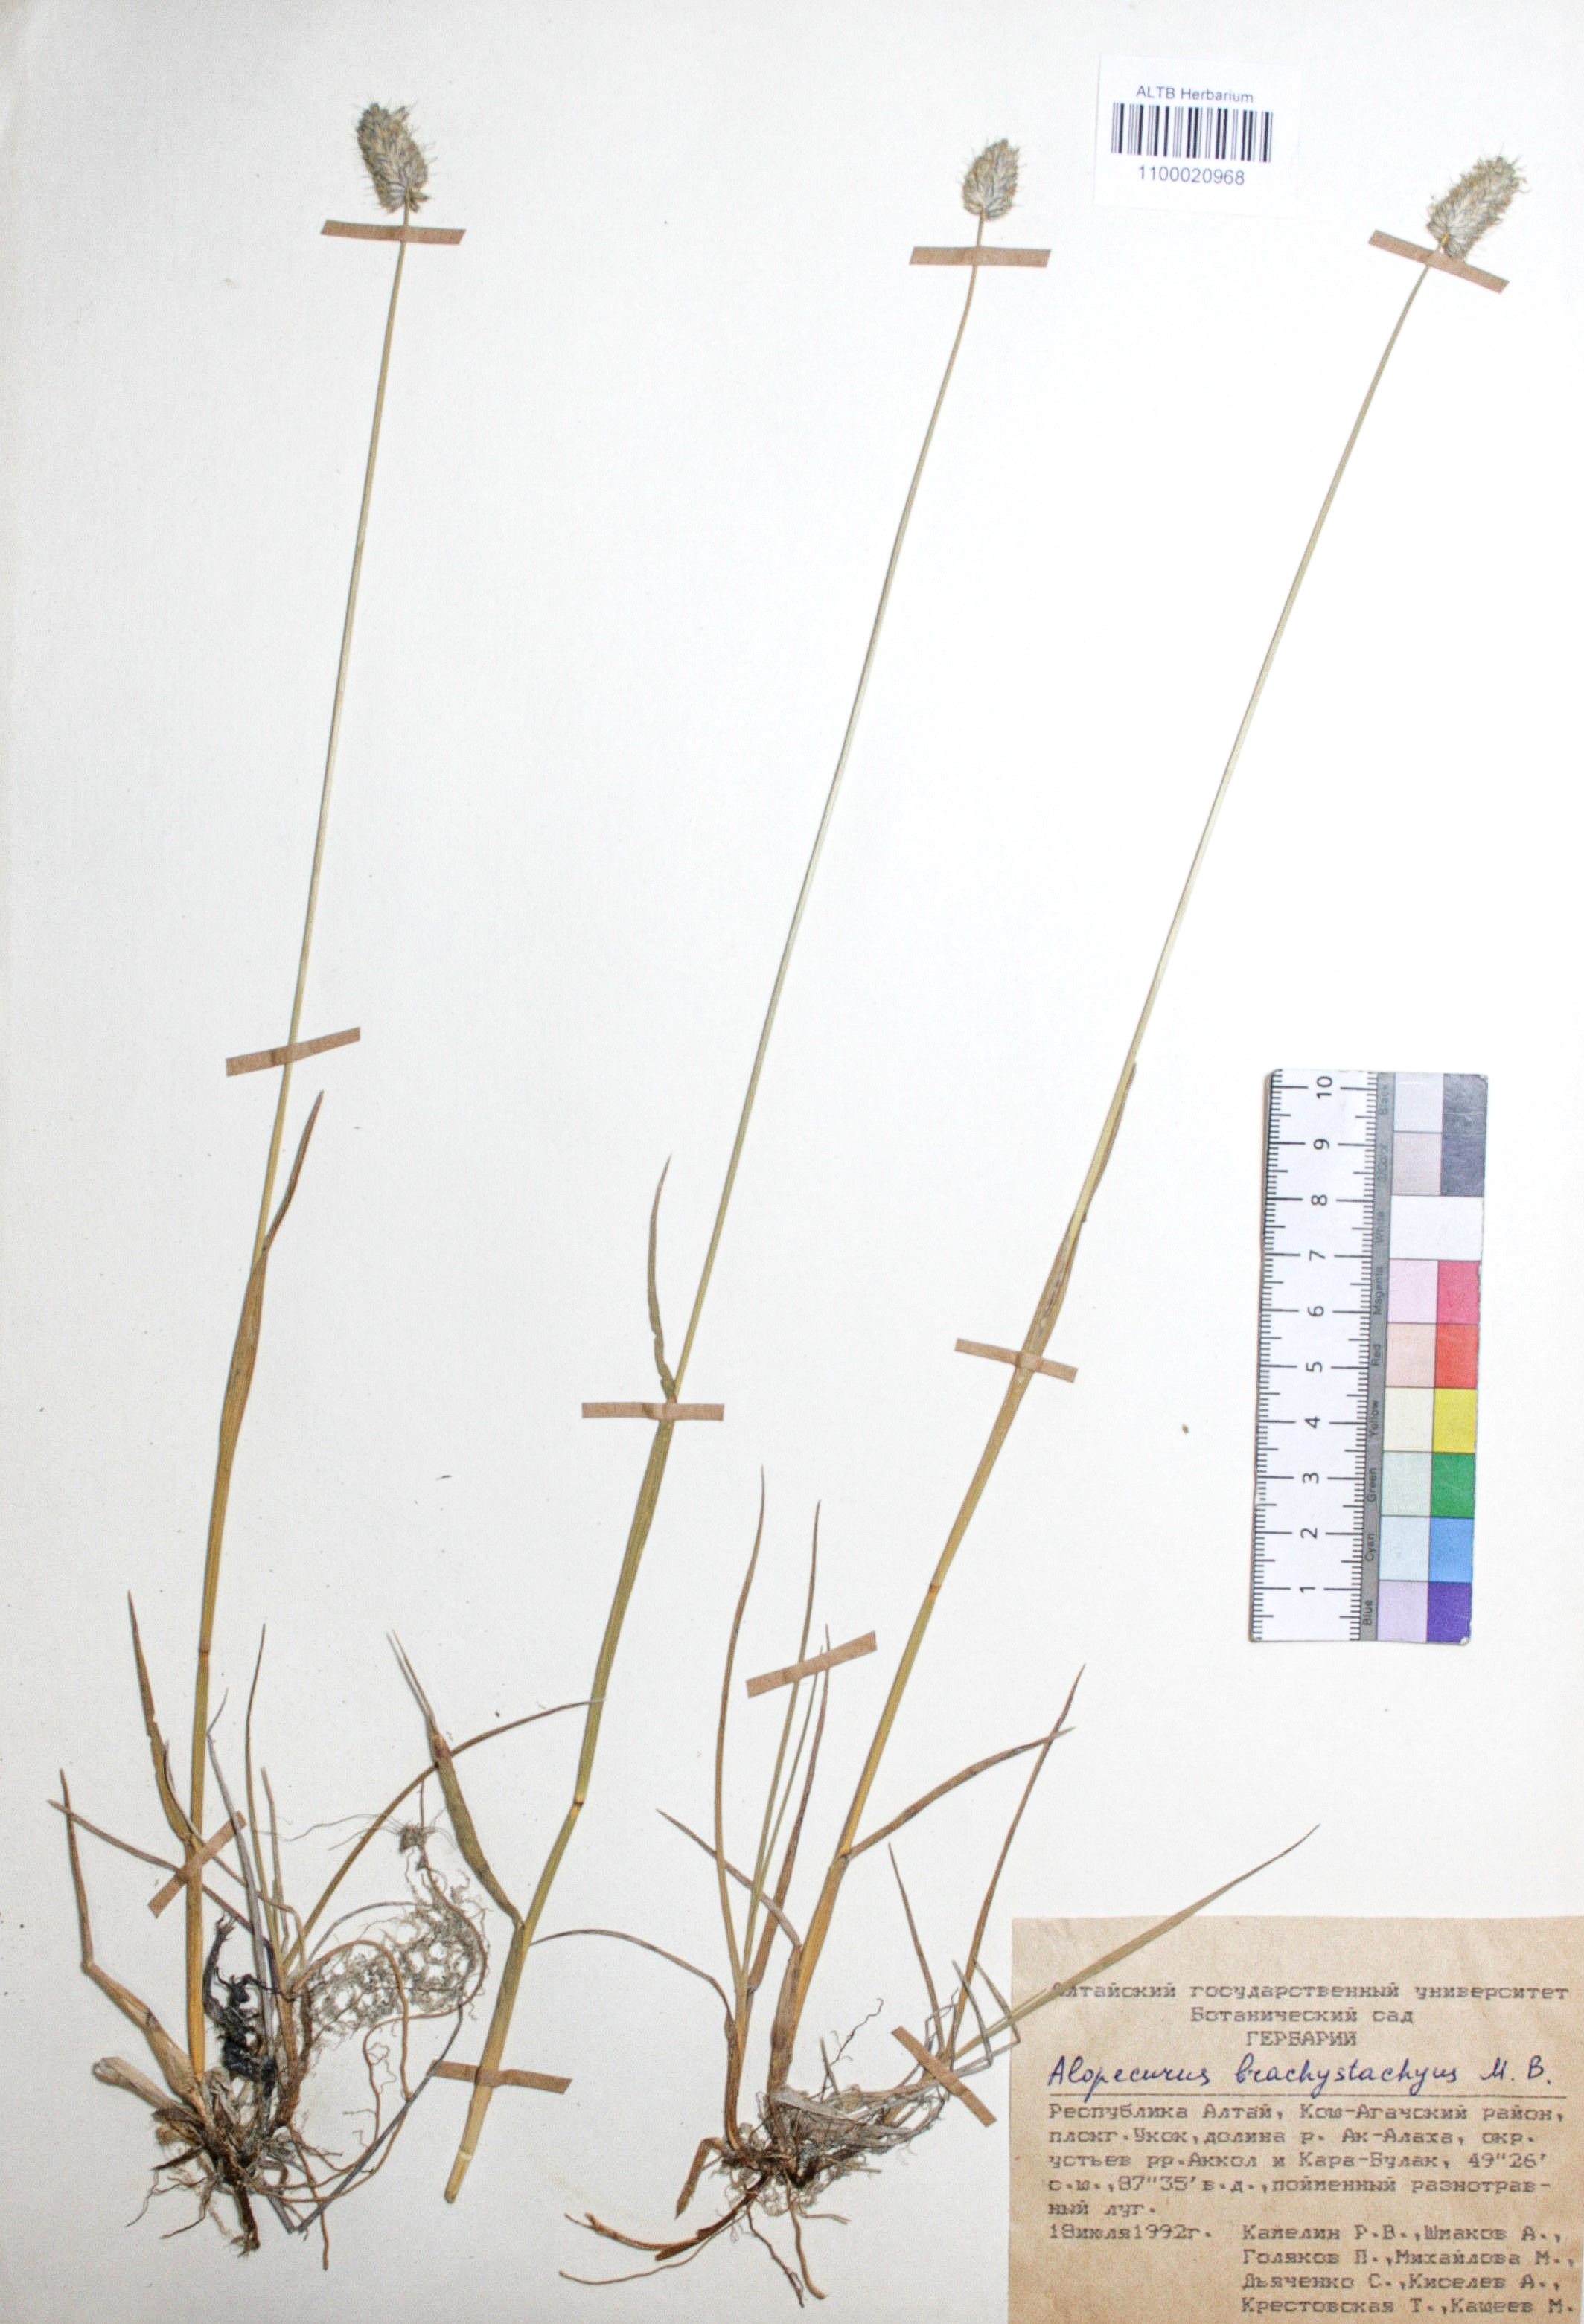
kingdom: Plantae
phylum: Tracheophyta
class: Liliopsida
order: Poales
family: Poaceae
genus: Alopecurus
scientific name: Alopecurus brachystachyus
